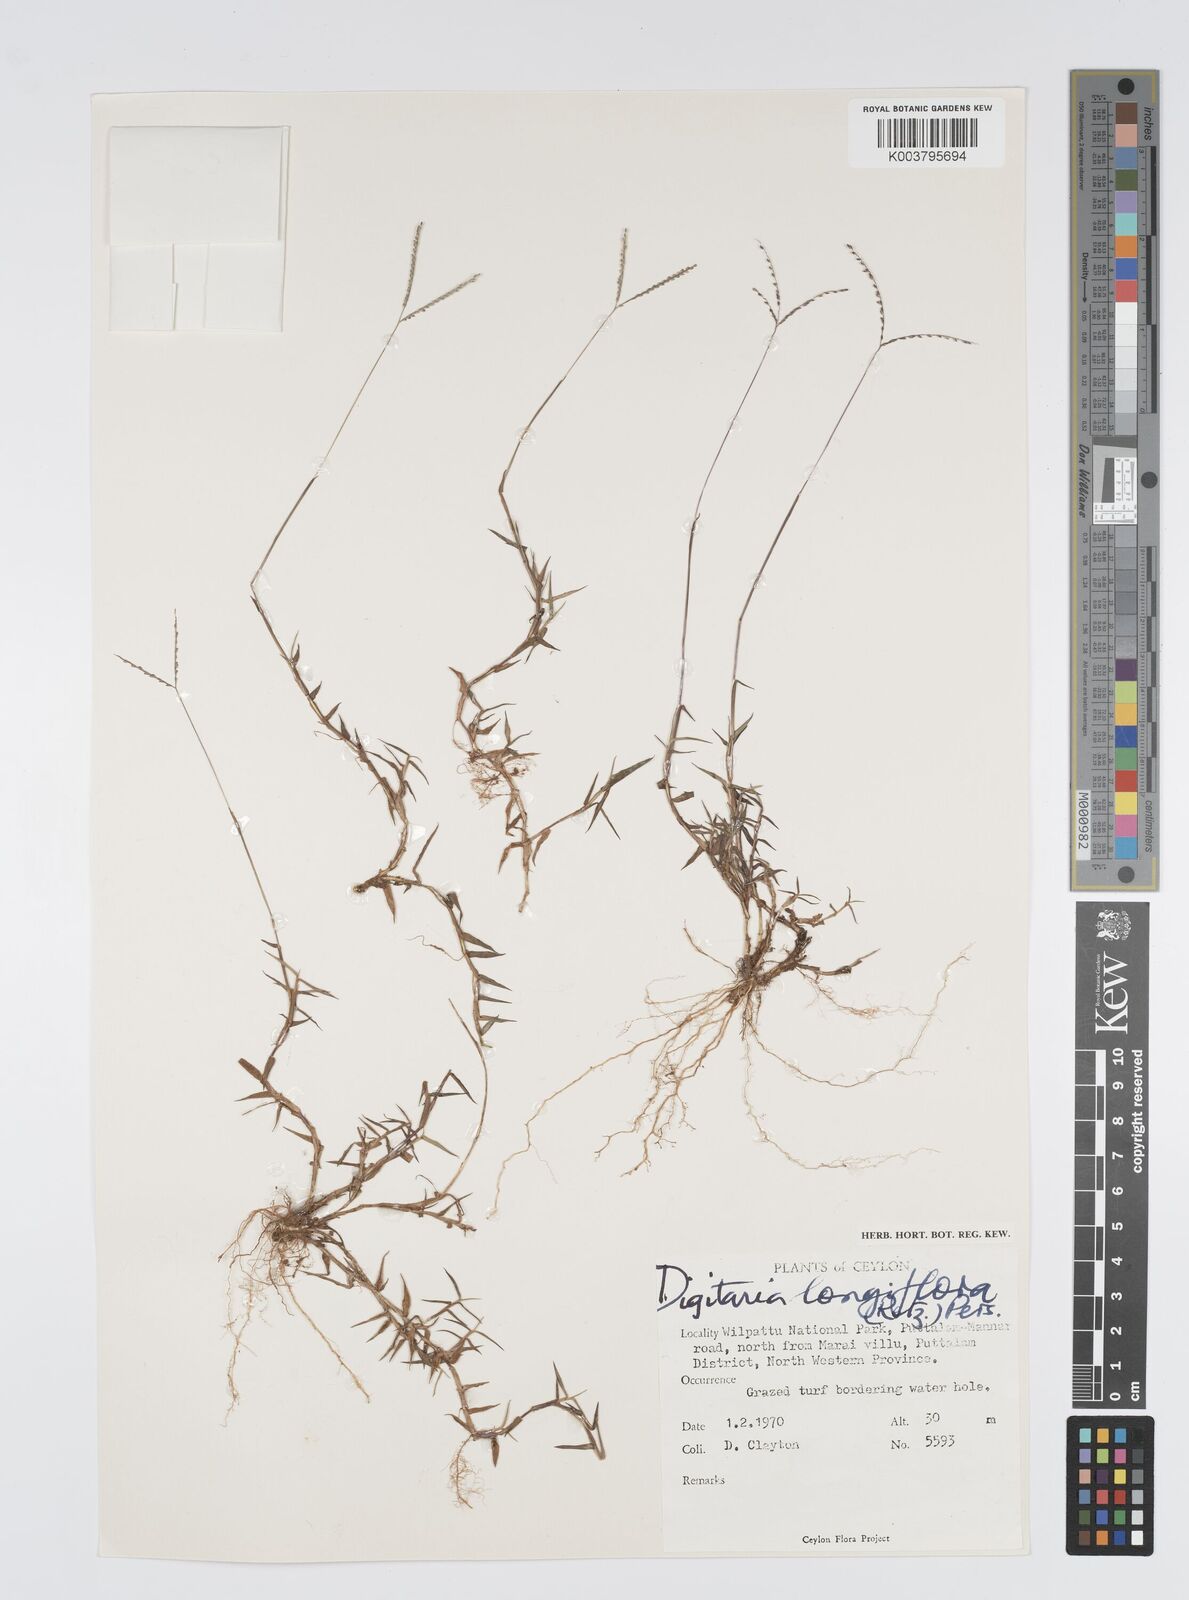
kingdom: Plantae
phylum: Tracheophyta
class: Liliopsida
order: Poales
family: Poaceae
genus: Digitaria
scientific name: Digitaria longiflora
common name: Wire crabgrass
